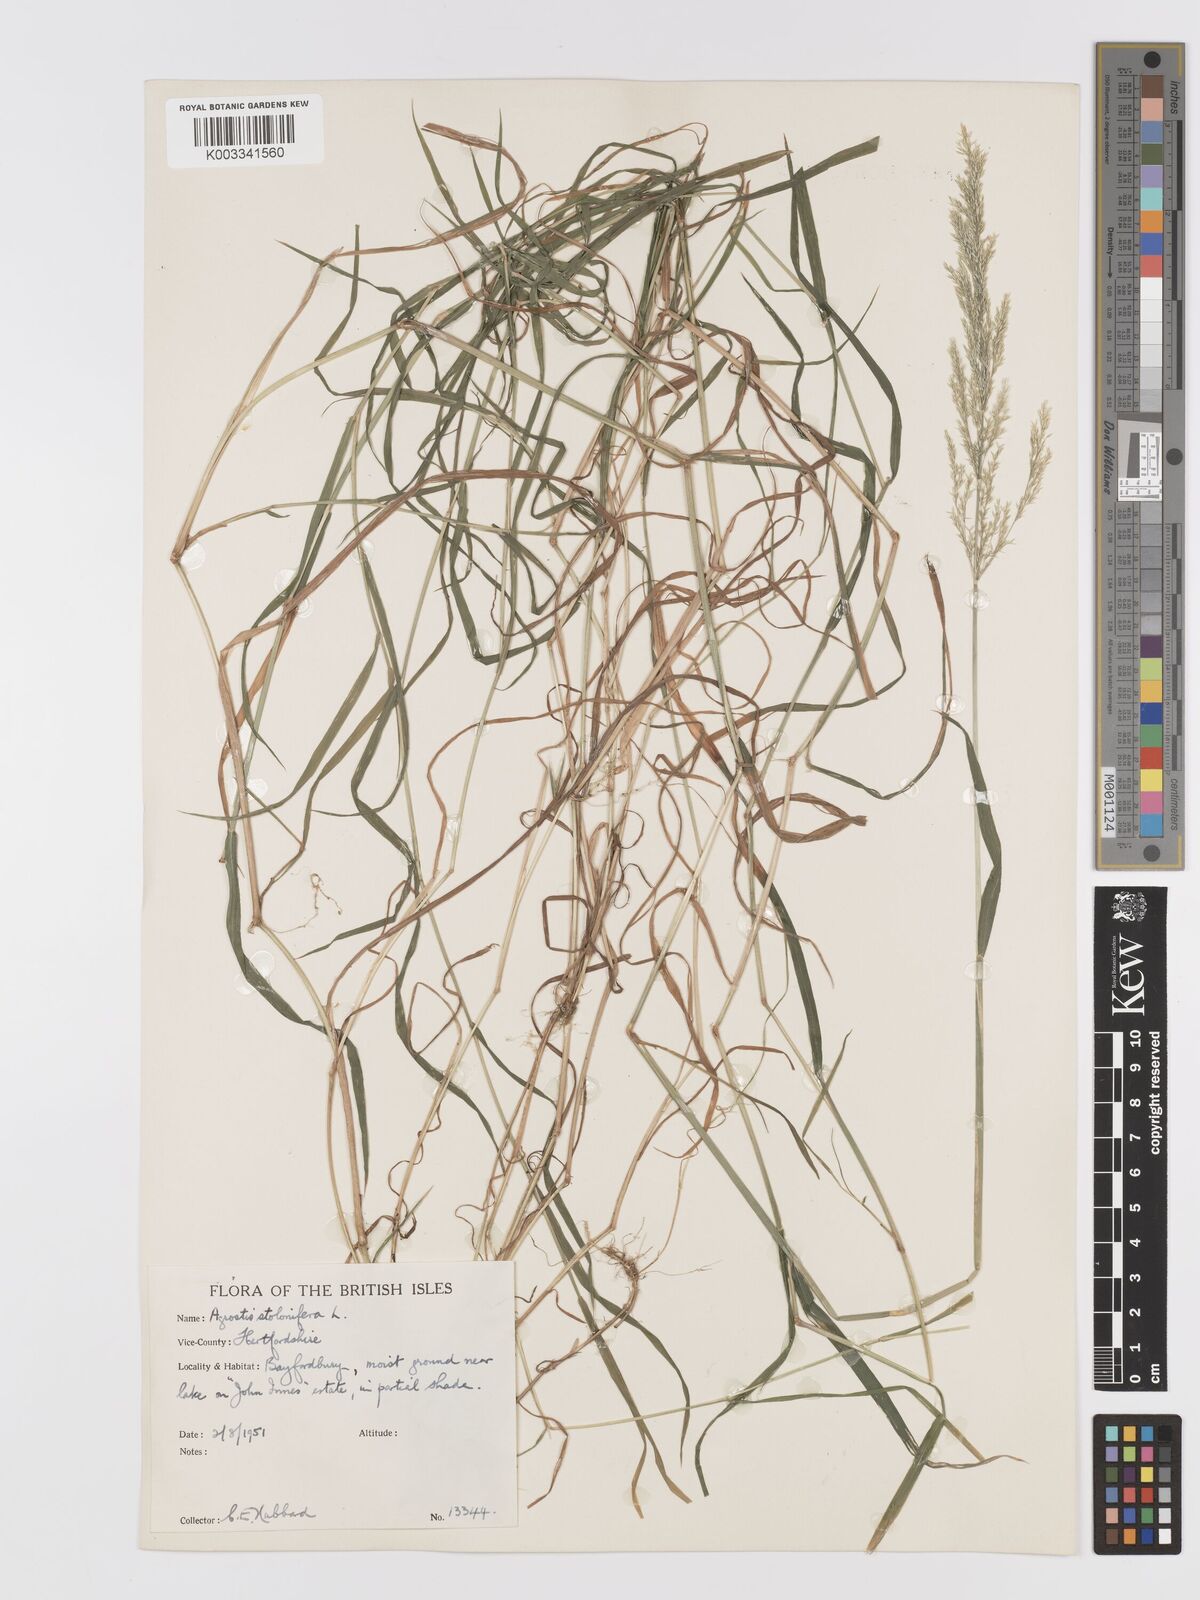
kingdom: Plantae
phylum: Tracheophyta
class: Liliopsida
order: Poales
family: Poaceae
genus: Agrostis
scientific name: Agrostis stolonifera
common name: Creeping bentgrass
